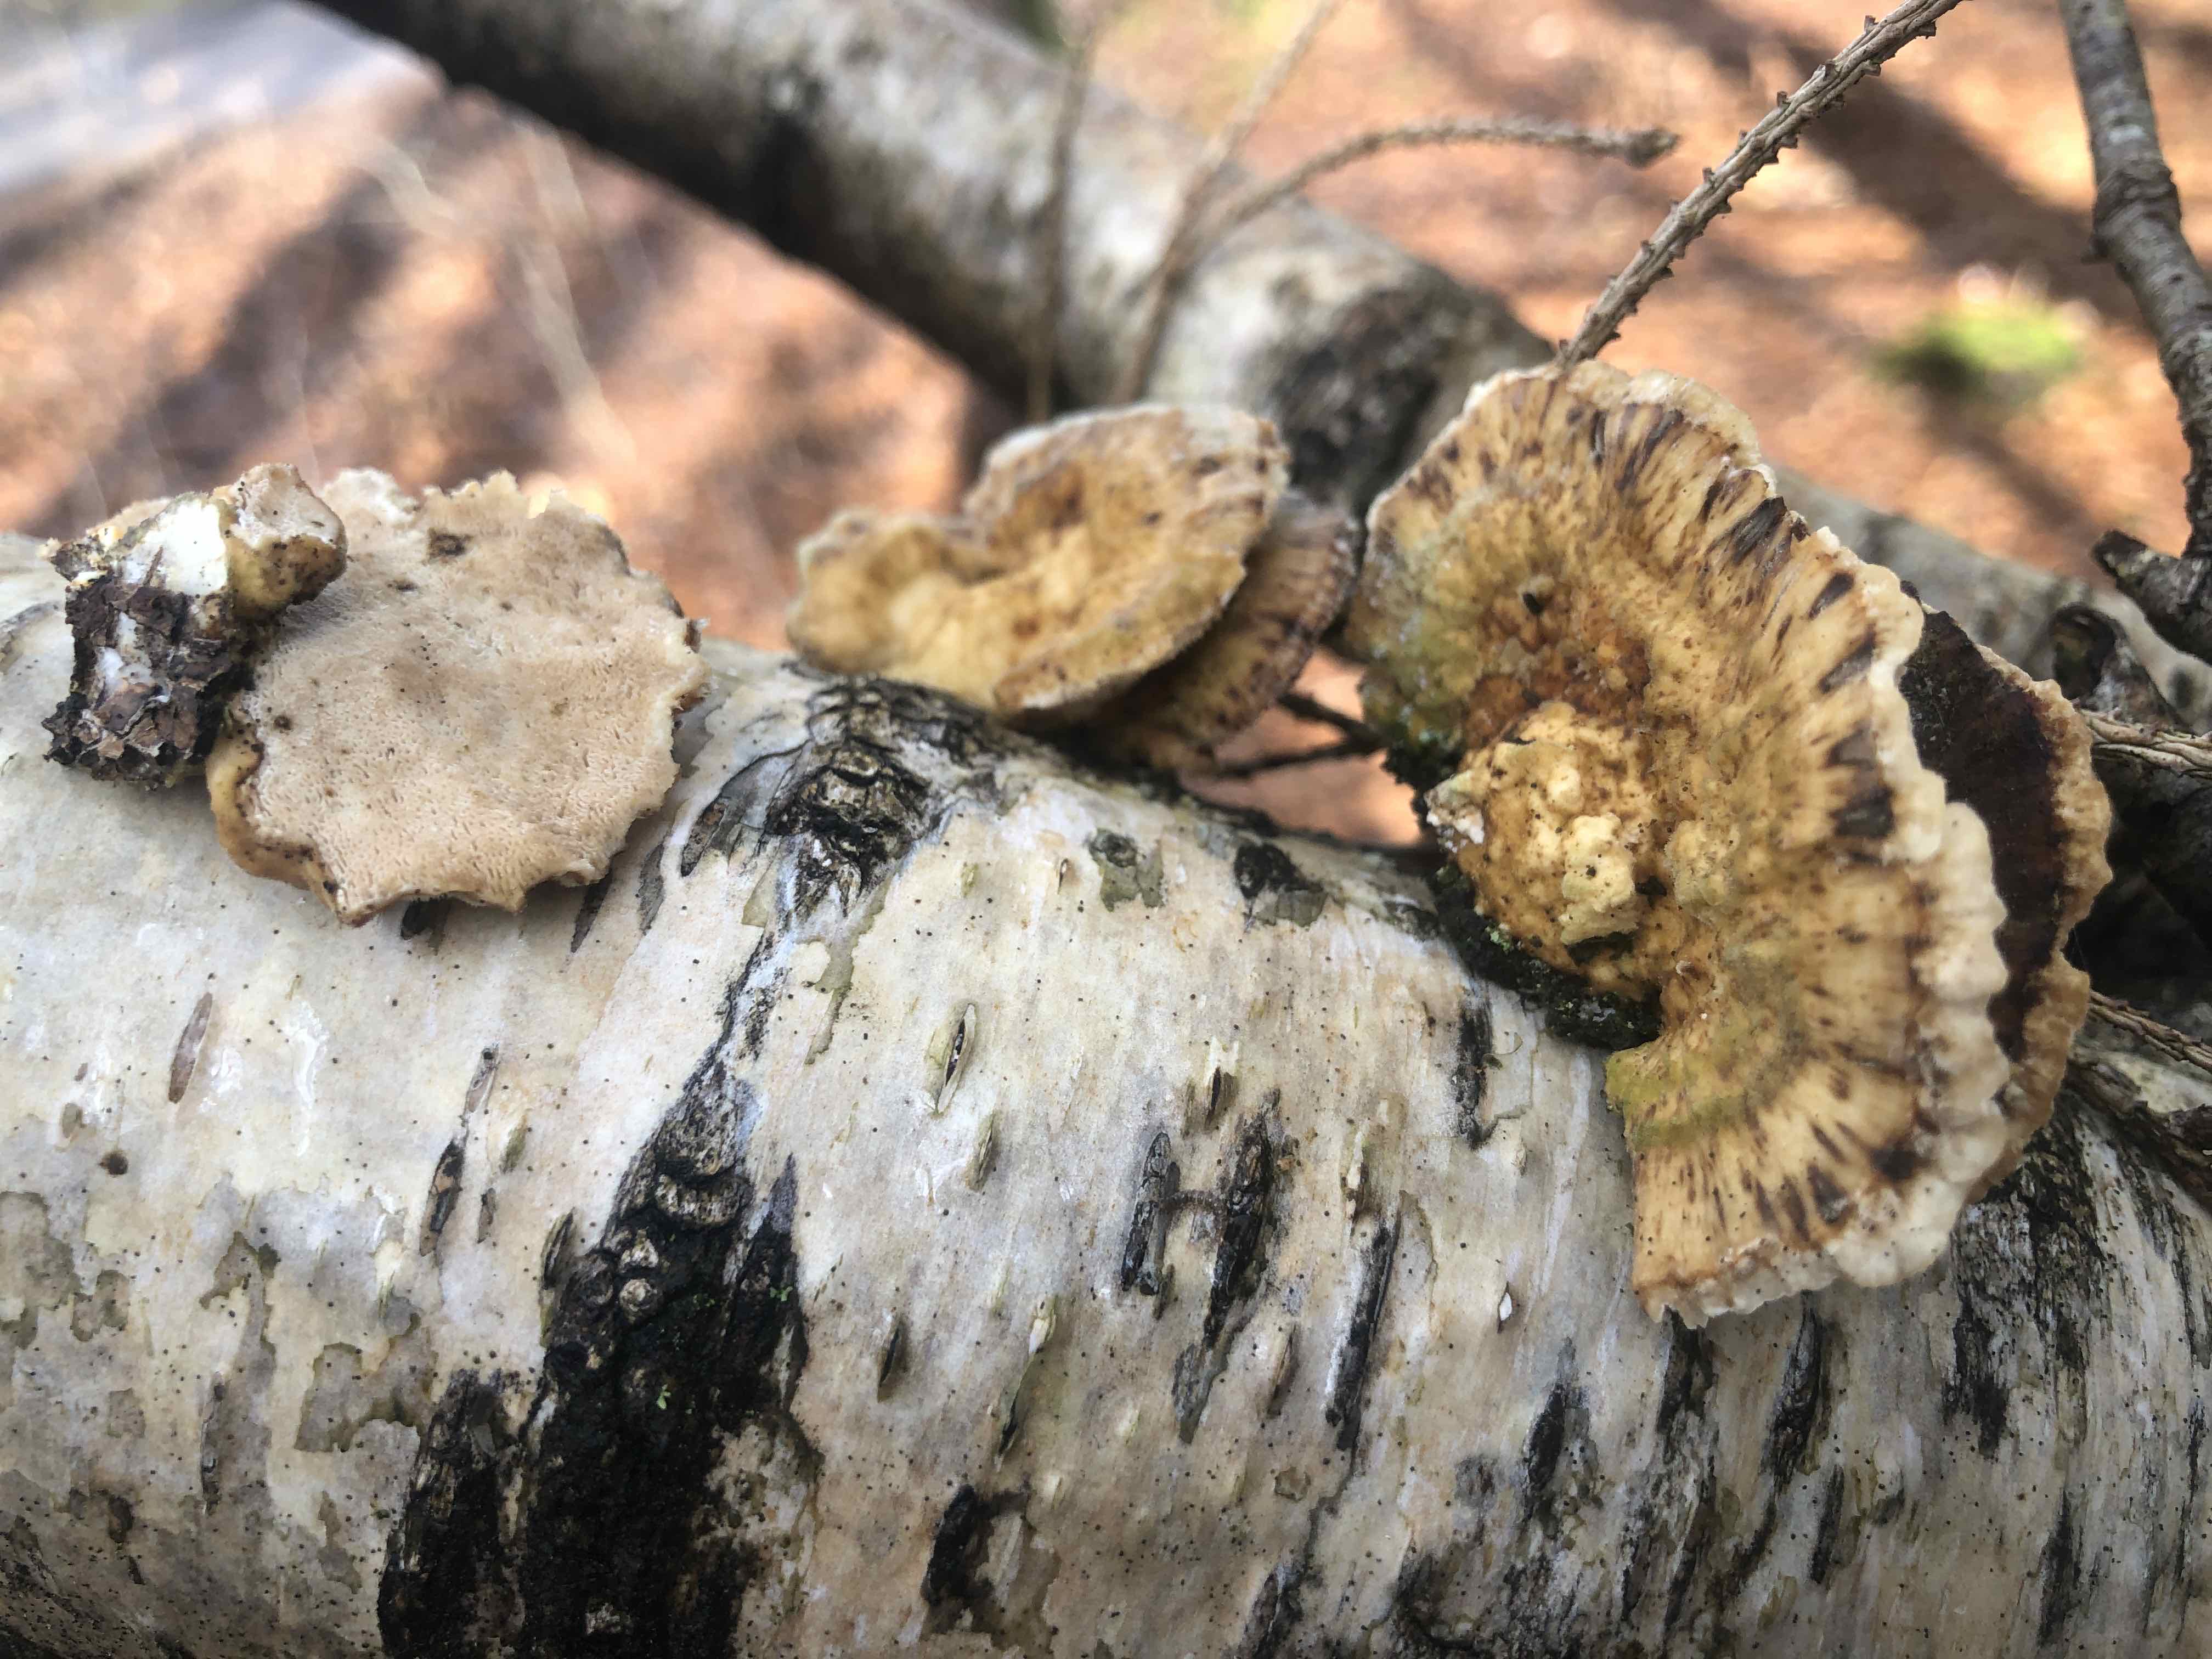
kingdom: Fungi
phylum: Basidiomycota
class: Agaricomycetes
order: Polyporales
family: Polyporaceae
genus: Trametes
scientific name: Trametes ochracea
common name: bæltet læderporesvamp
